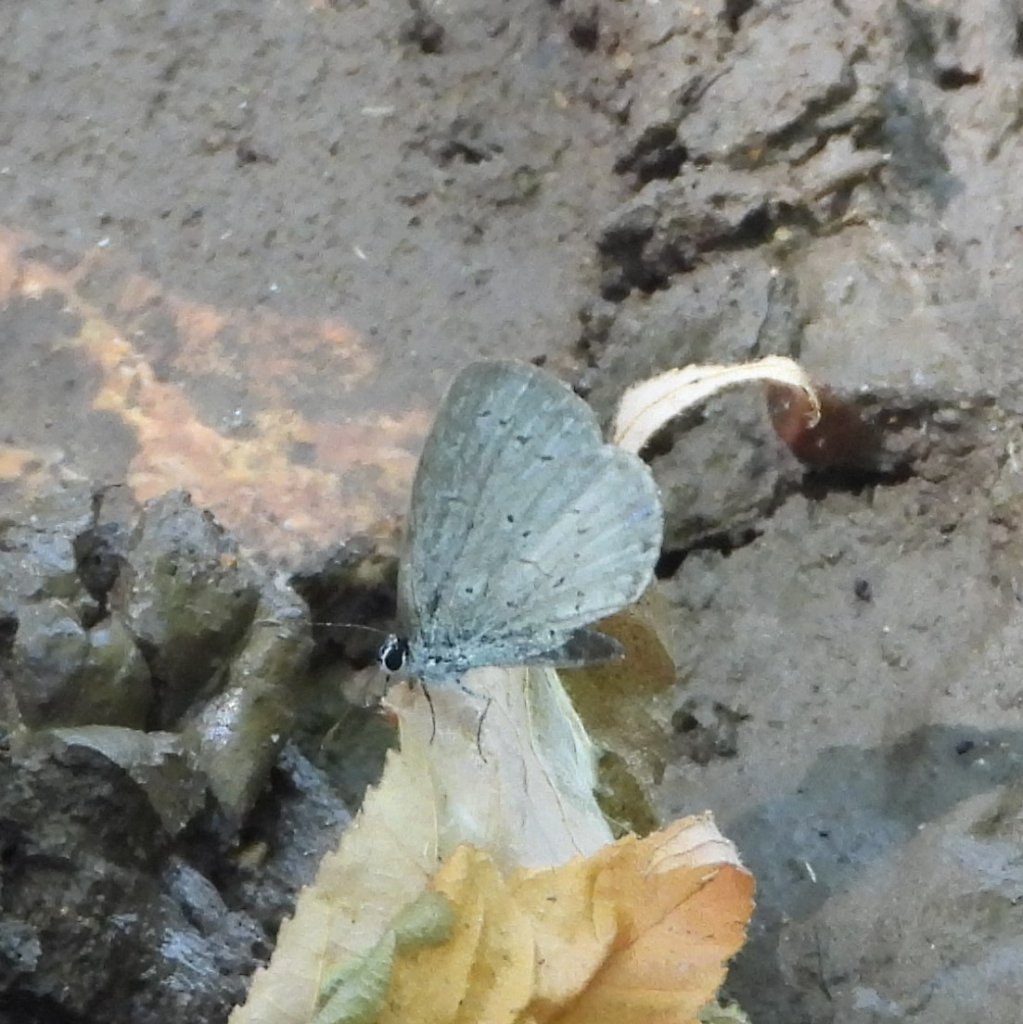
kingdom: Animalia
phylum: Arthropoda
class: Insecta
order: Lepidoptera
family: Lycaenidae
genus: Cyaniris
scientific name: Cyaniris neglecta
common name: Summer Azure
